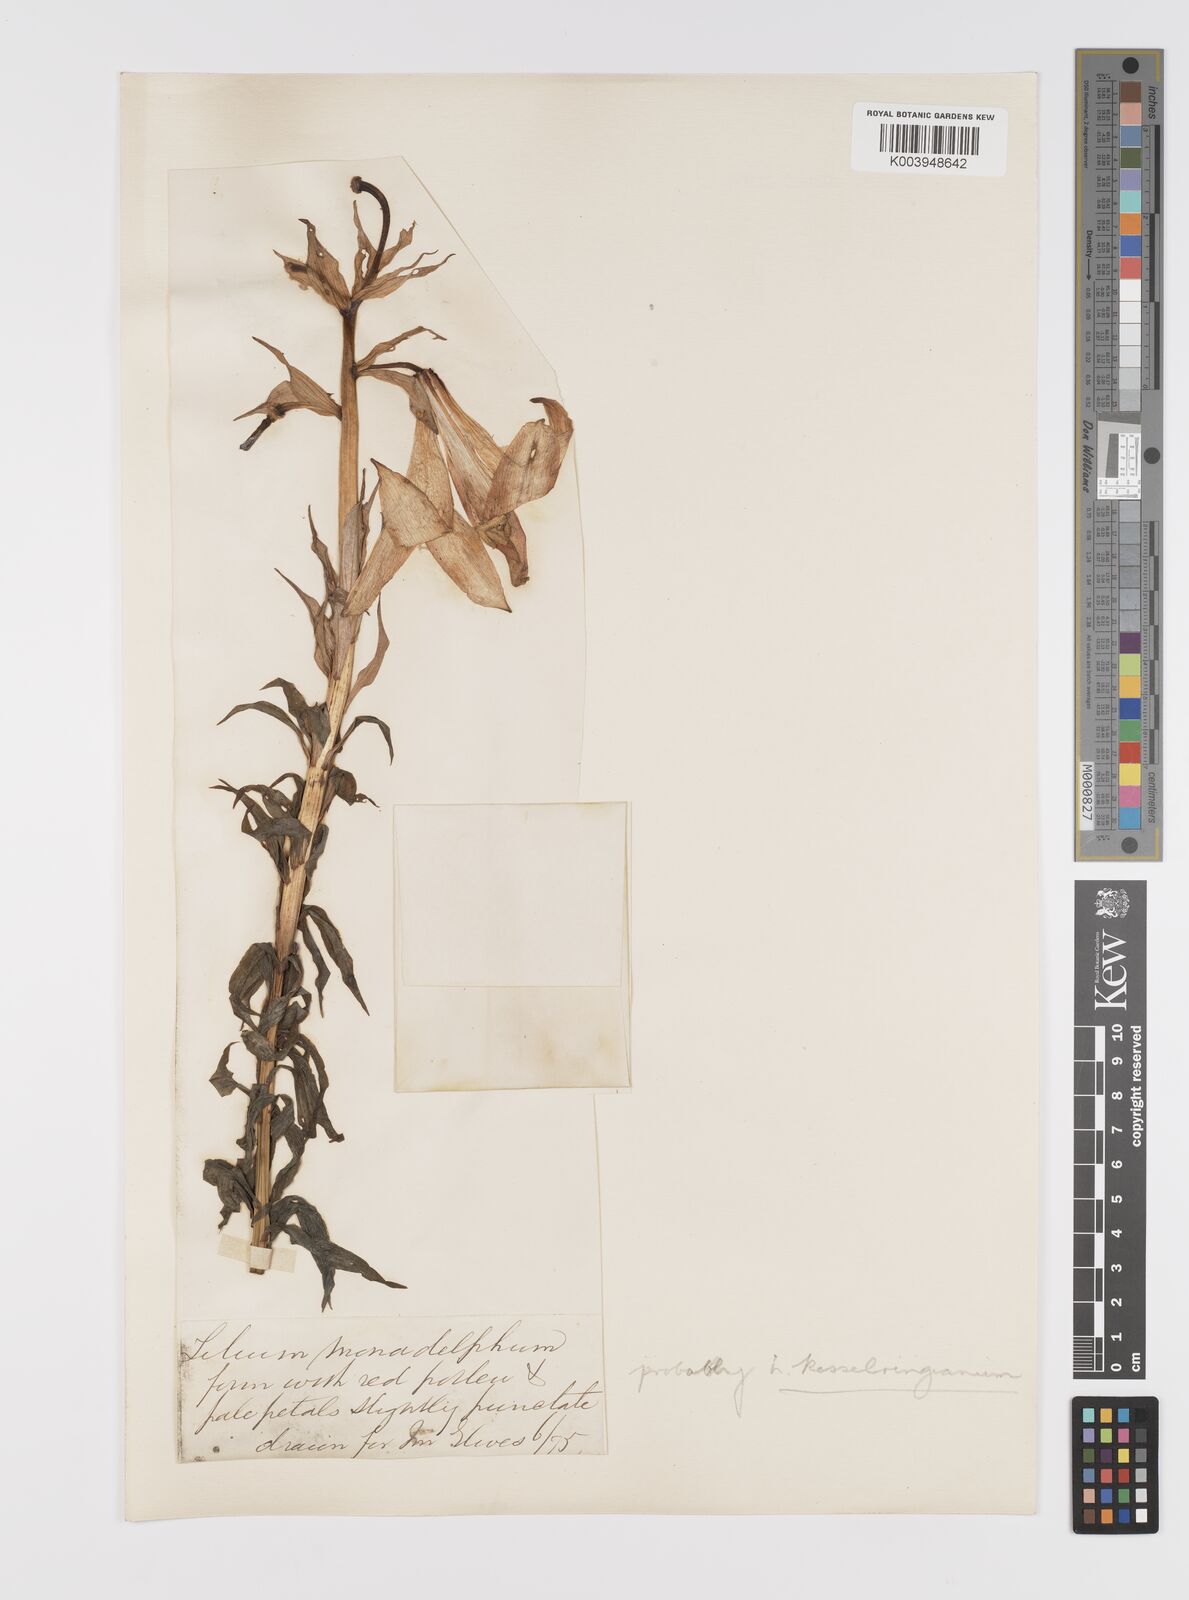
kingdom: Plantae
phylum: Tracheophyta
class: Liliopsida
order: Liliales
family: Liliaceae
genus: Lilium
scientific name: Lilium kesselringianum
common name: Kesselring lily
